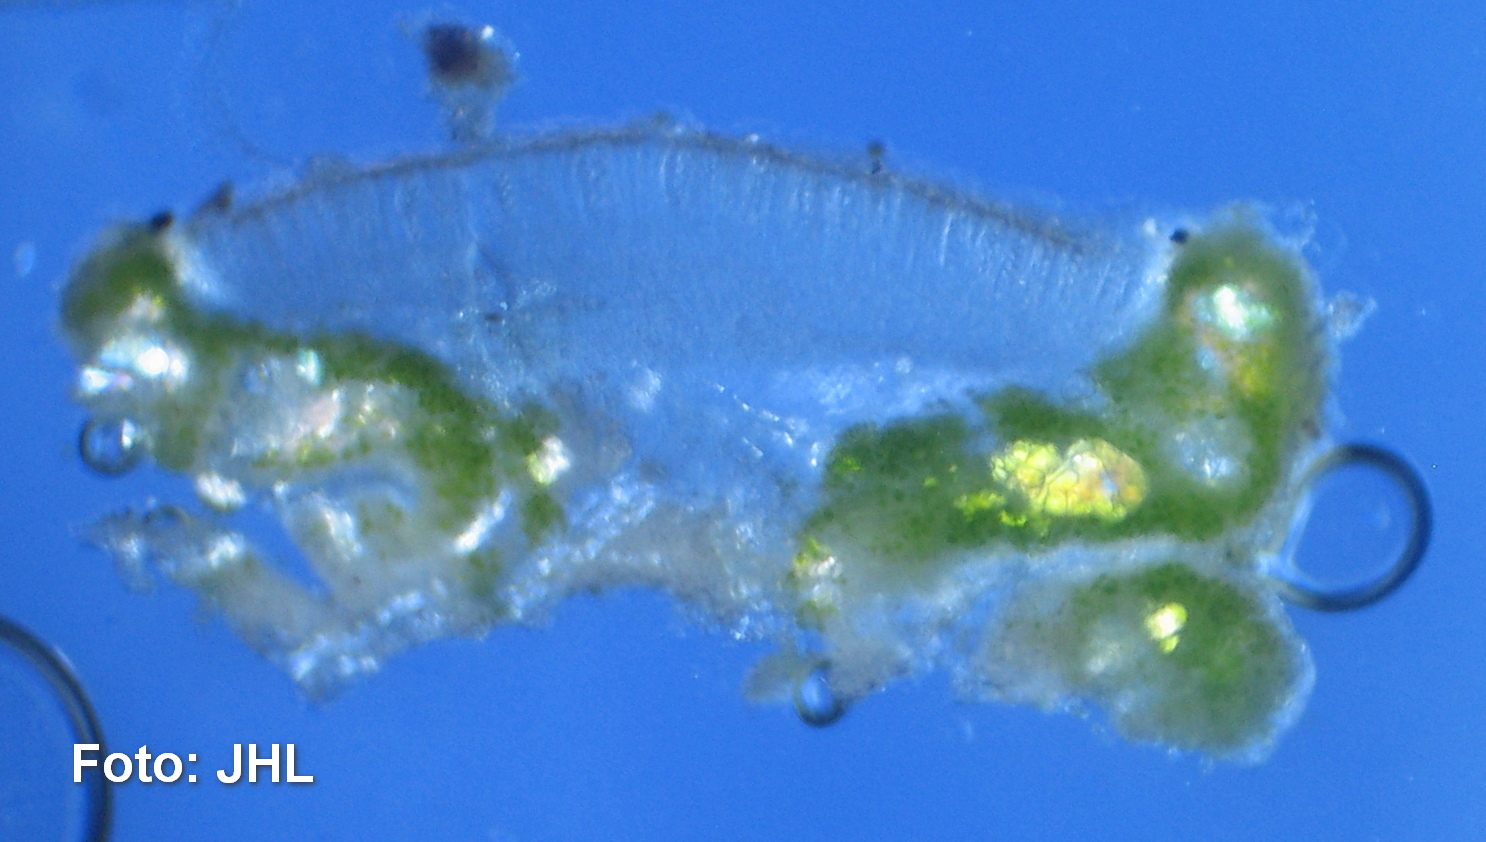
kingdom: Fungi
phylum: Ascomycota
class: Lecanoromycetes
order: Lecanorales
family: Lecanoraceae
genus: Lecanora
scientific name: Lecanora argentata
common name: sølv-kantskivelav
